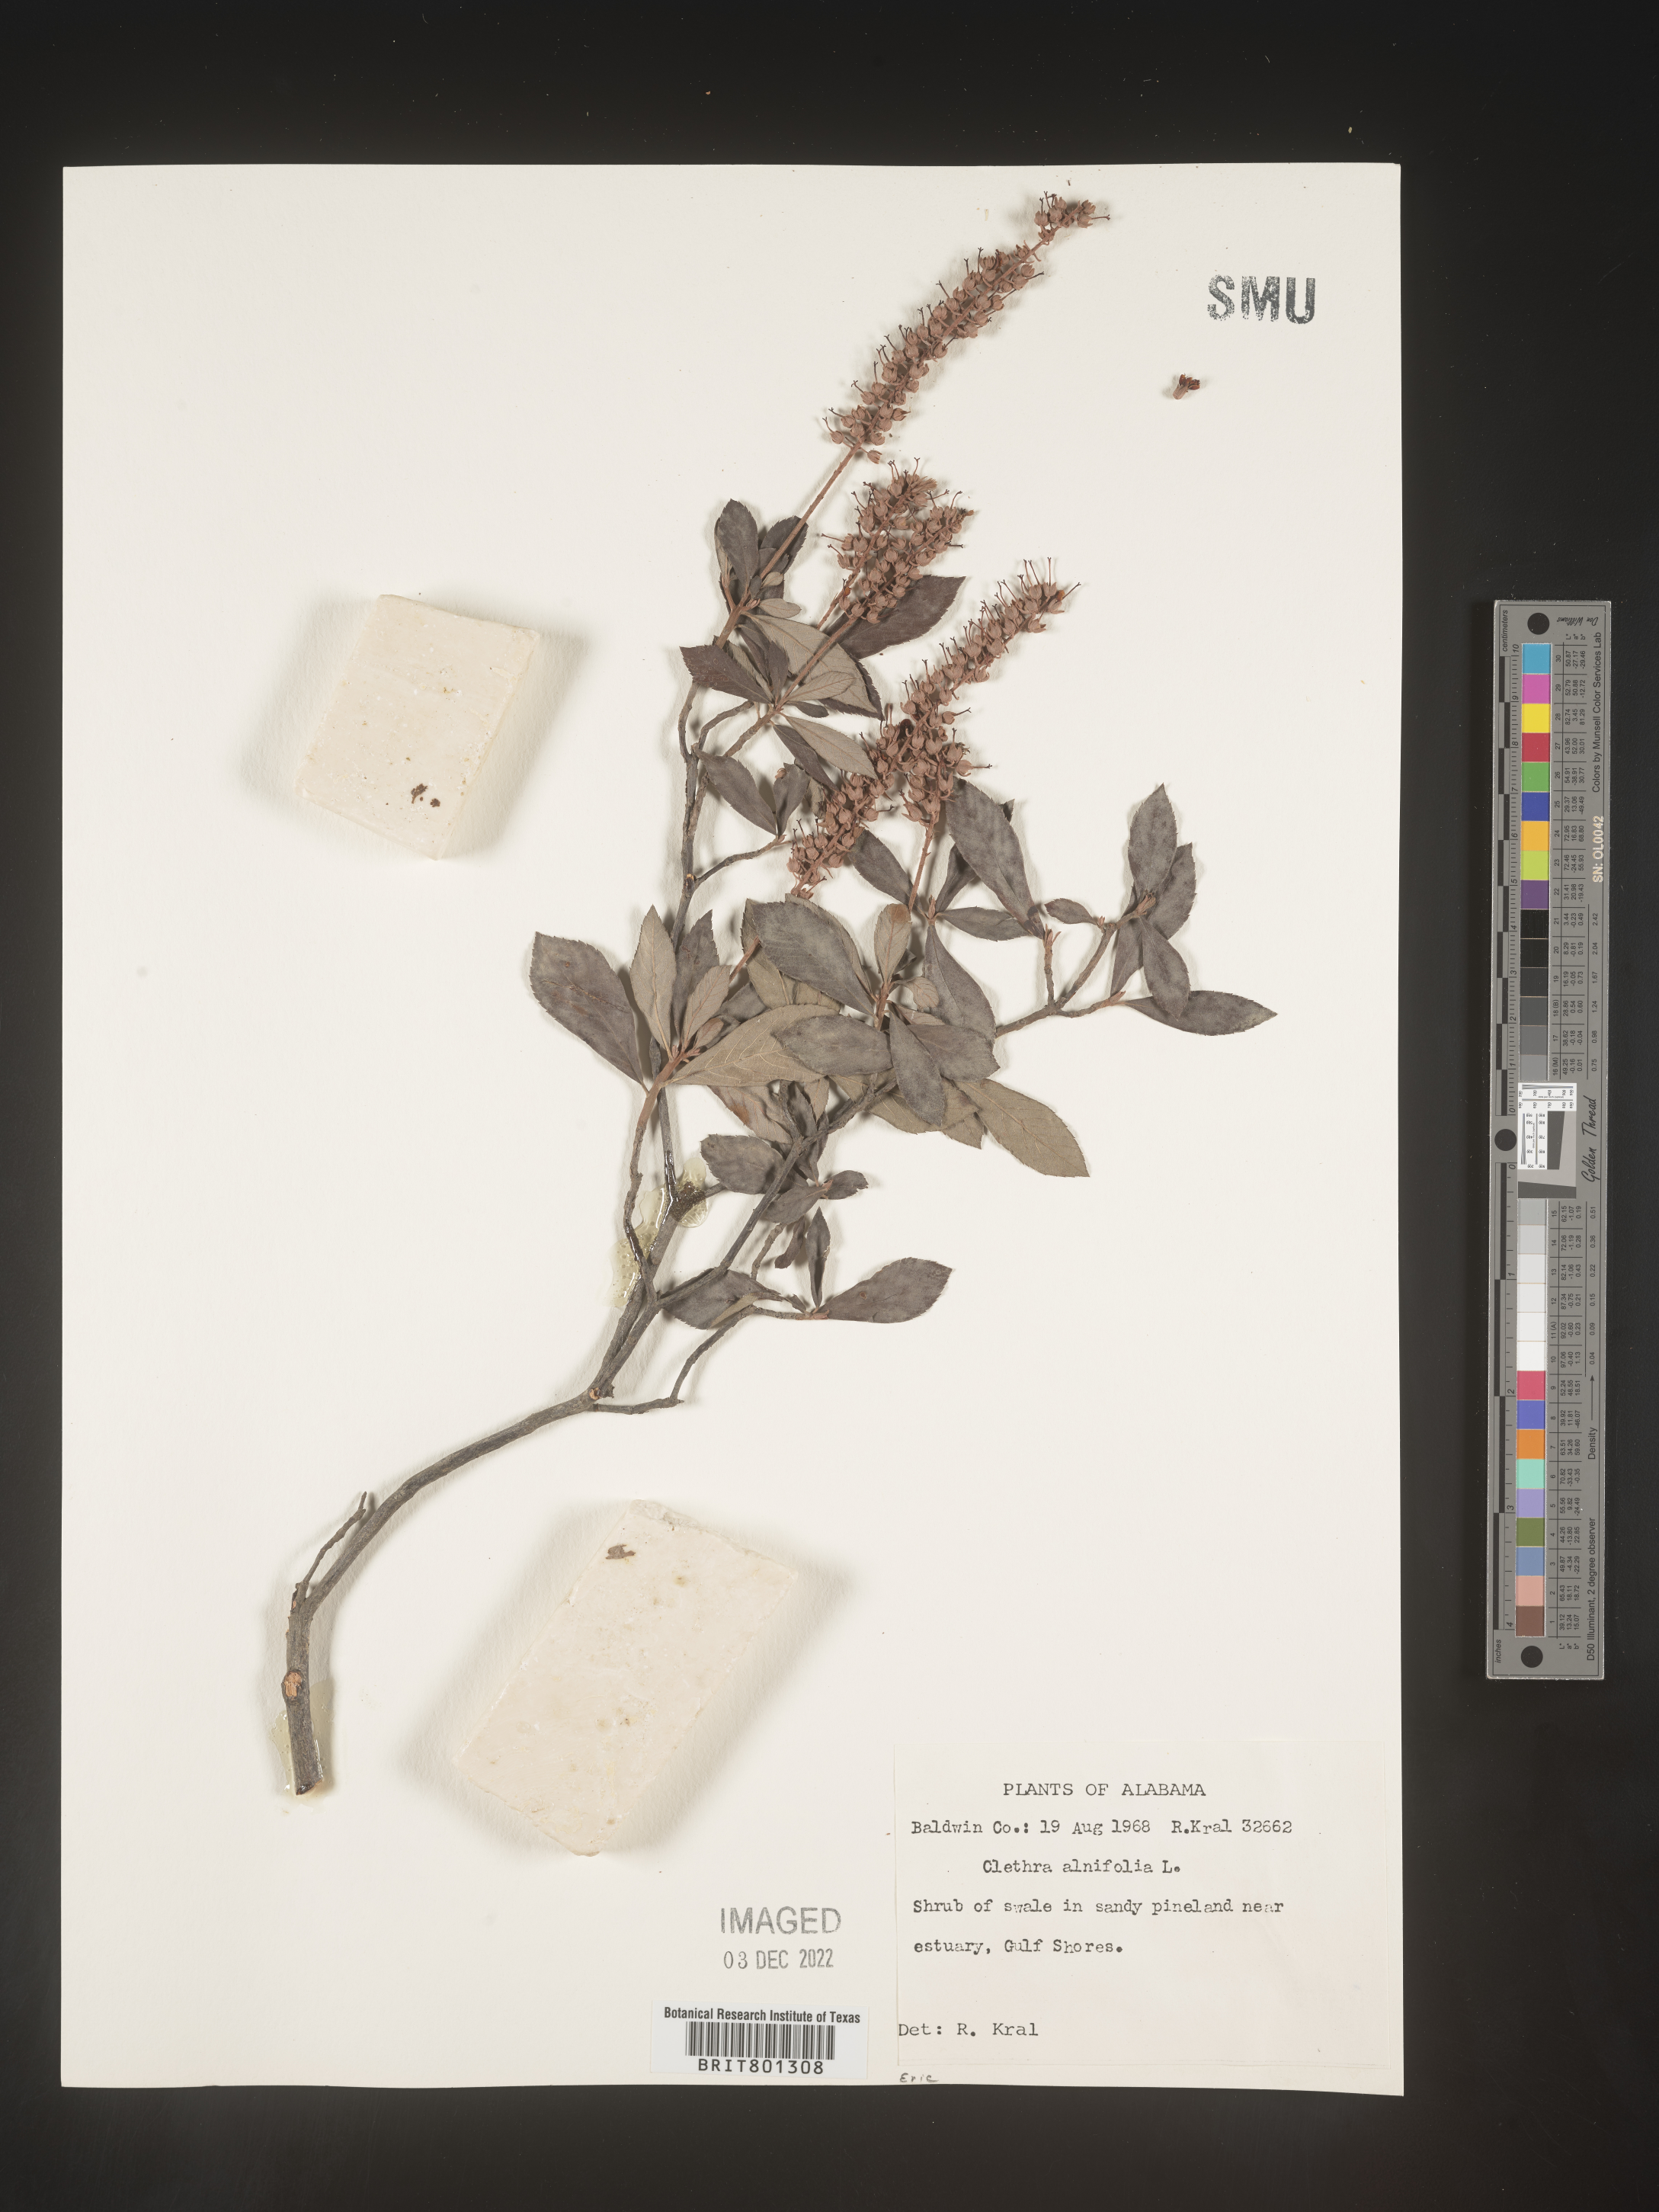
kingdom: Plantae
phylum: Tracheophyta
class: Magnoliopsida
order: Ericales
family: Clethraceae
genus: Clethra
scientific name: Clethra alnifolia
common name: Sweet pepperbush
